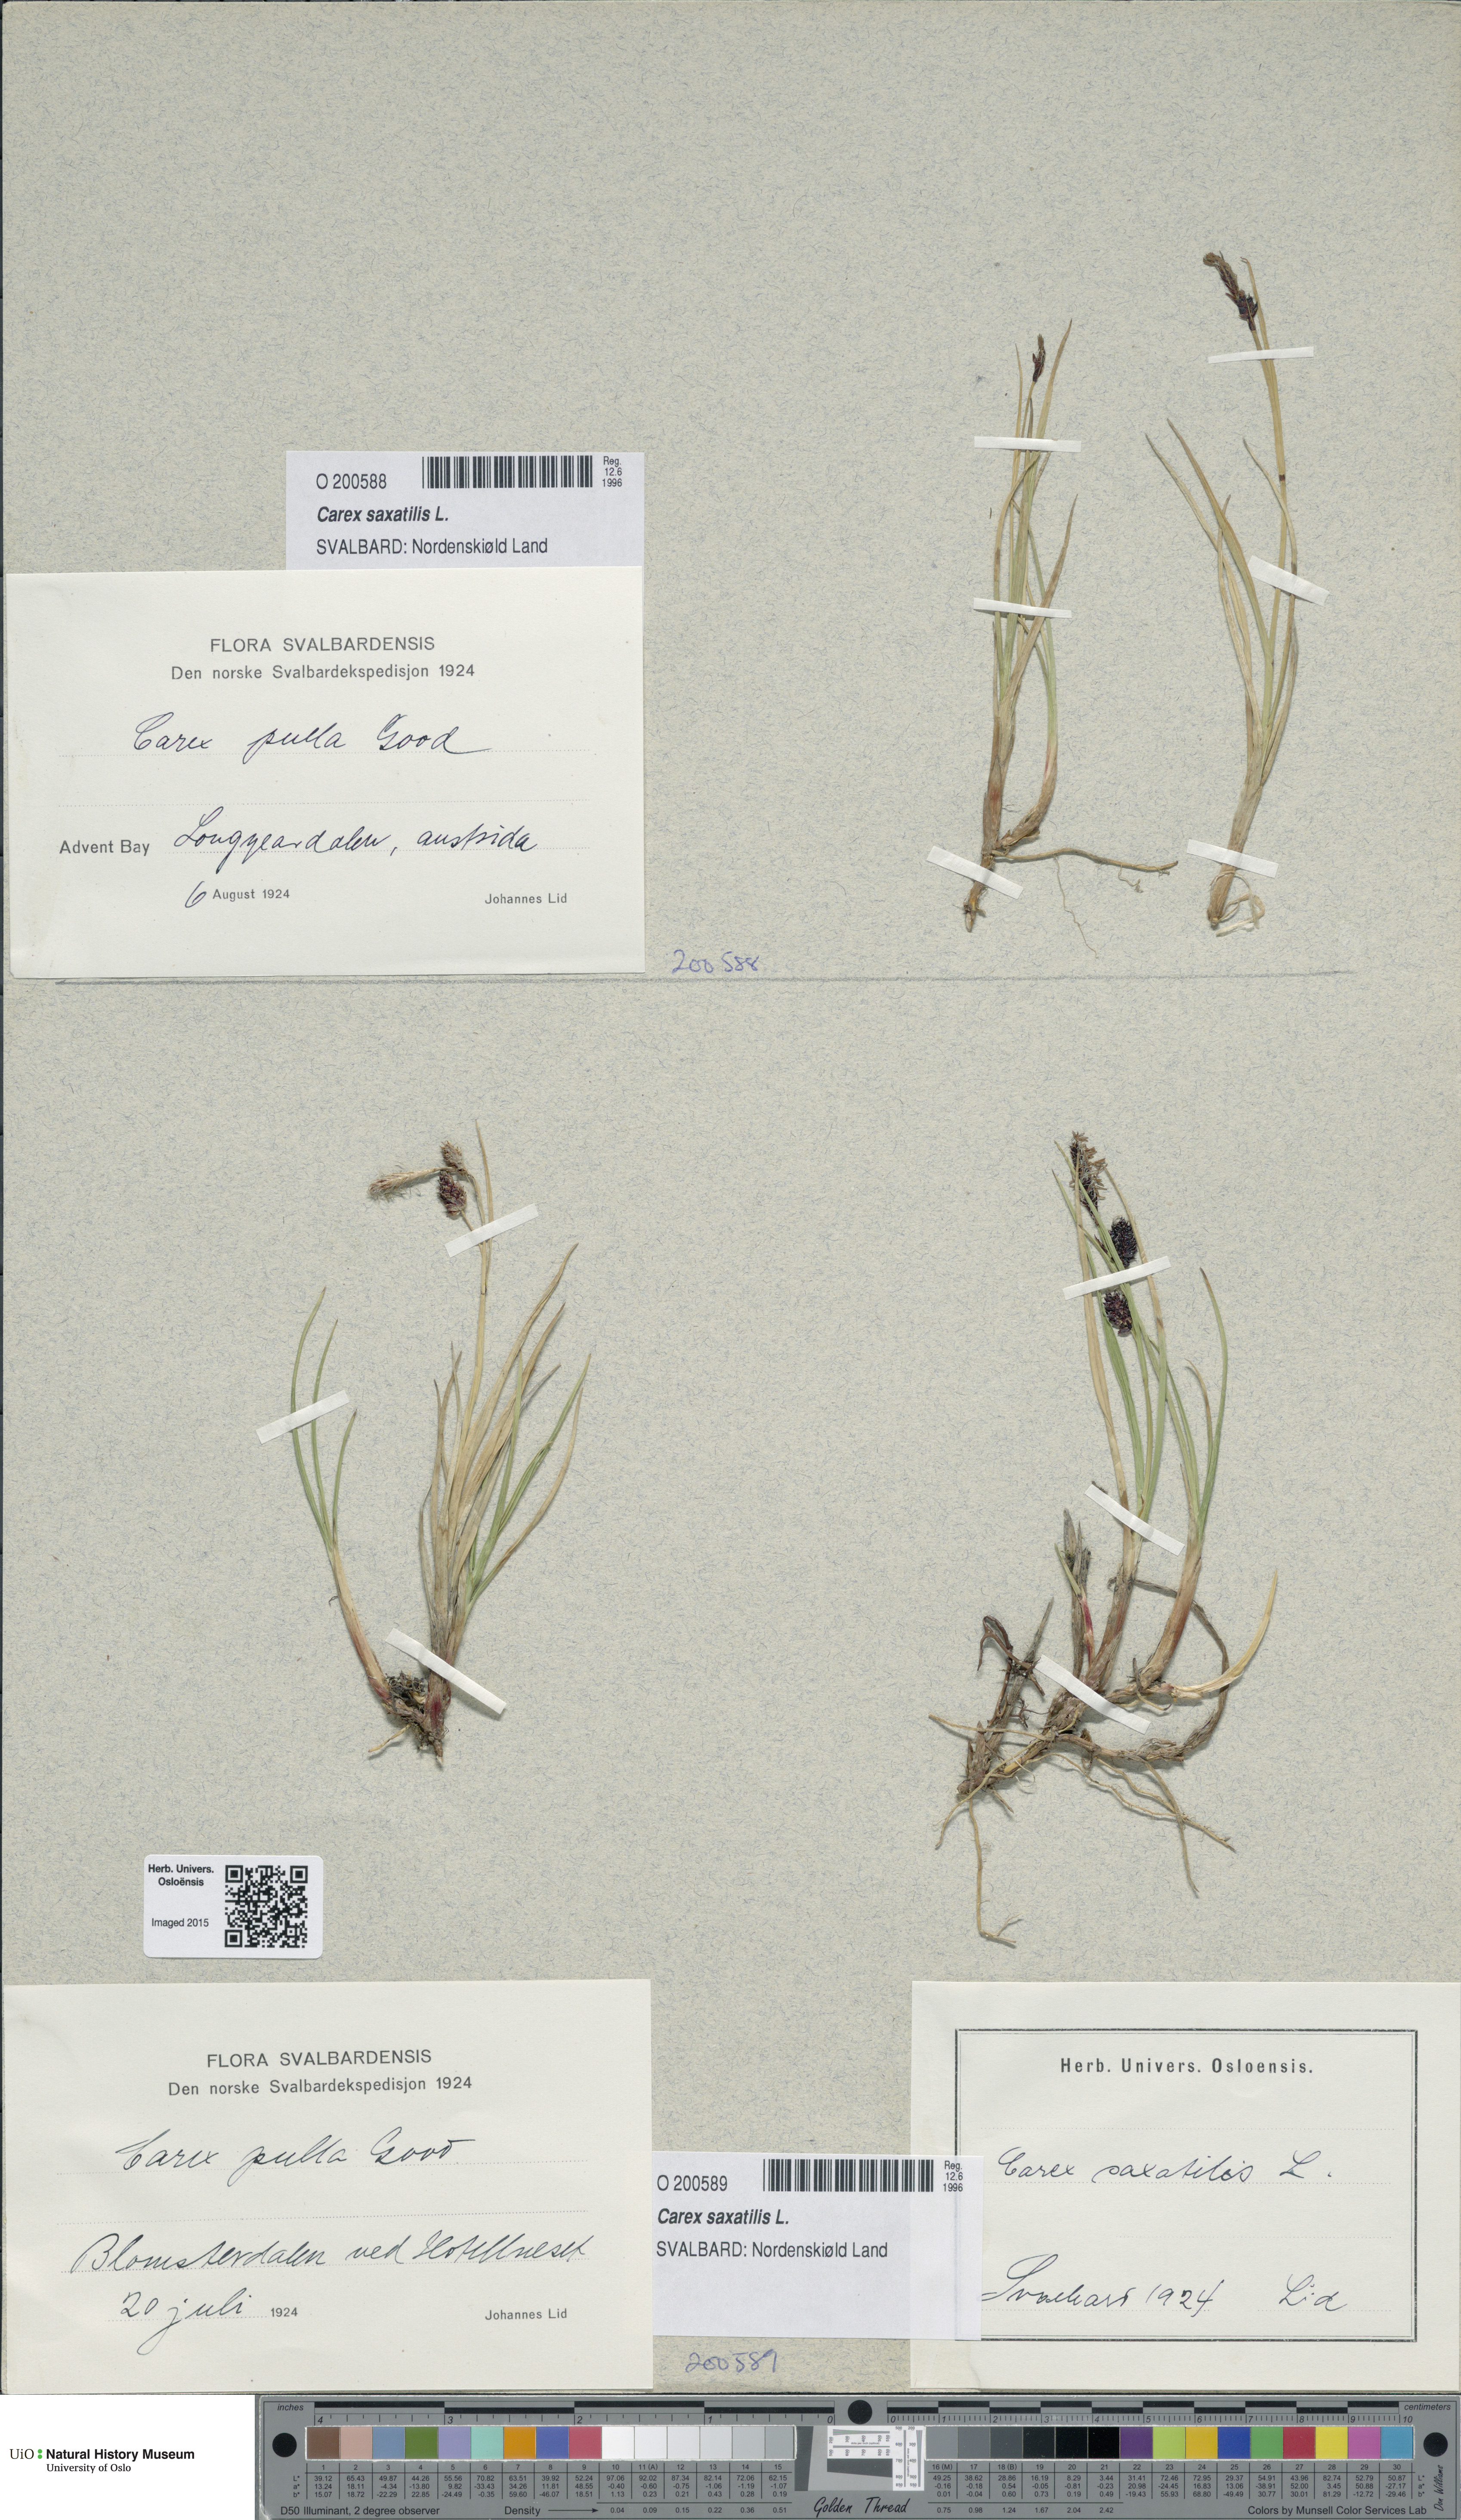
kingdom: Plantae
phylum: Tracheophyta
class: Liliopsida
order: Poales
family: Cyperaceae
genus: Carex
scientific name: Carex saxatilis
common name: Russet sedge
